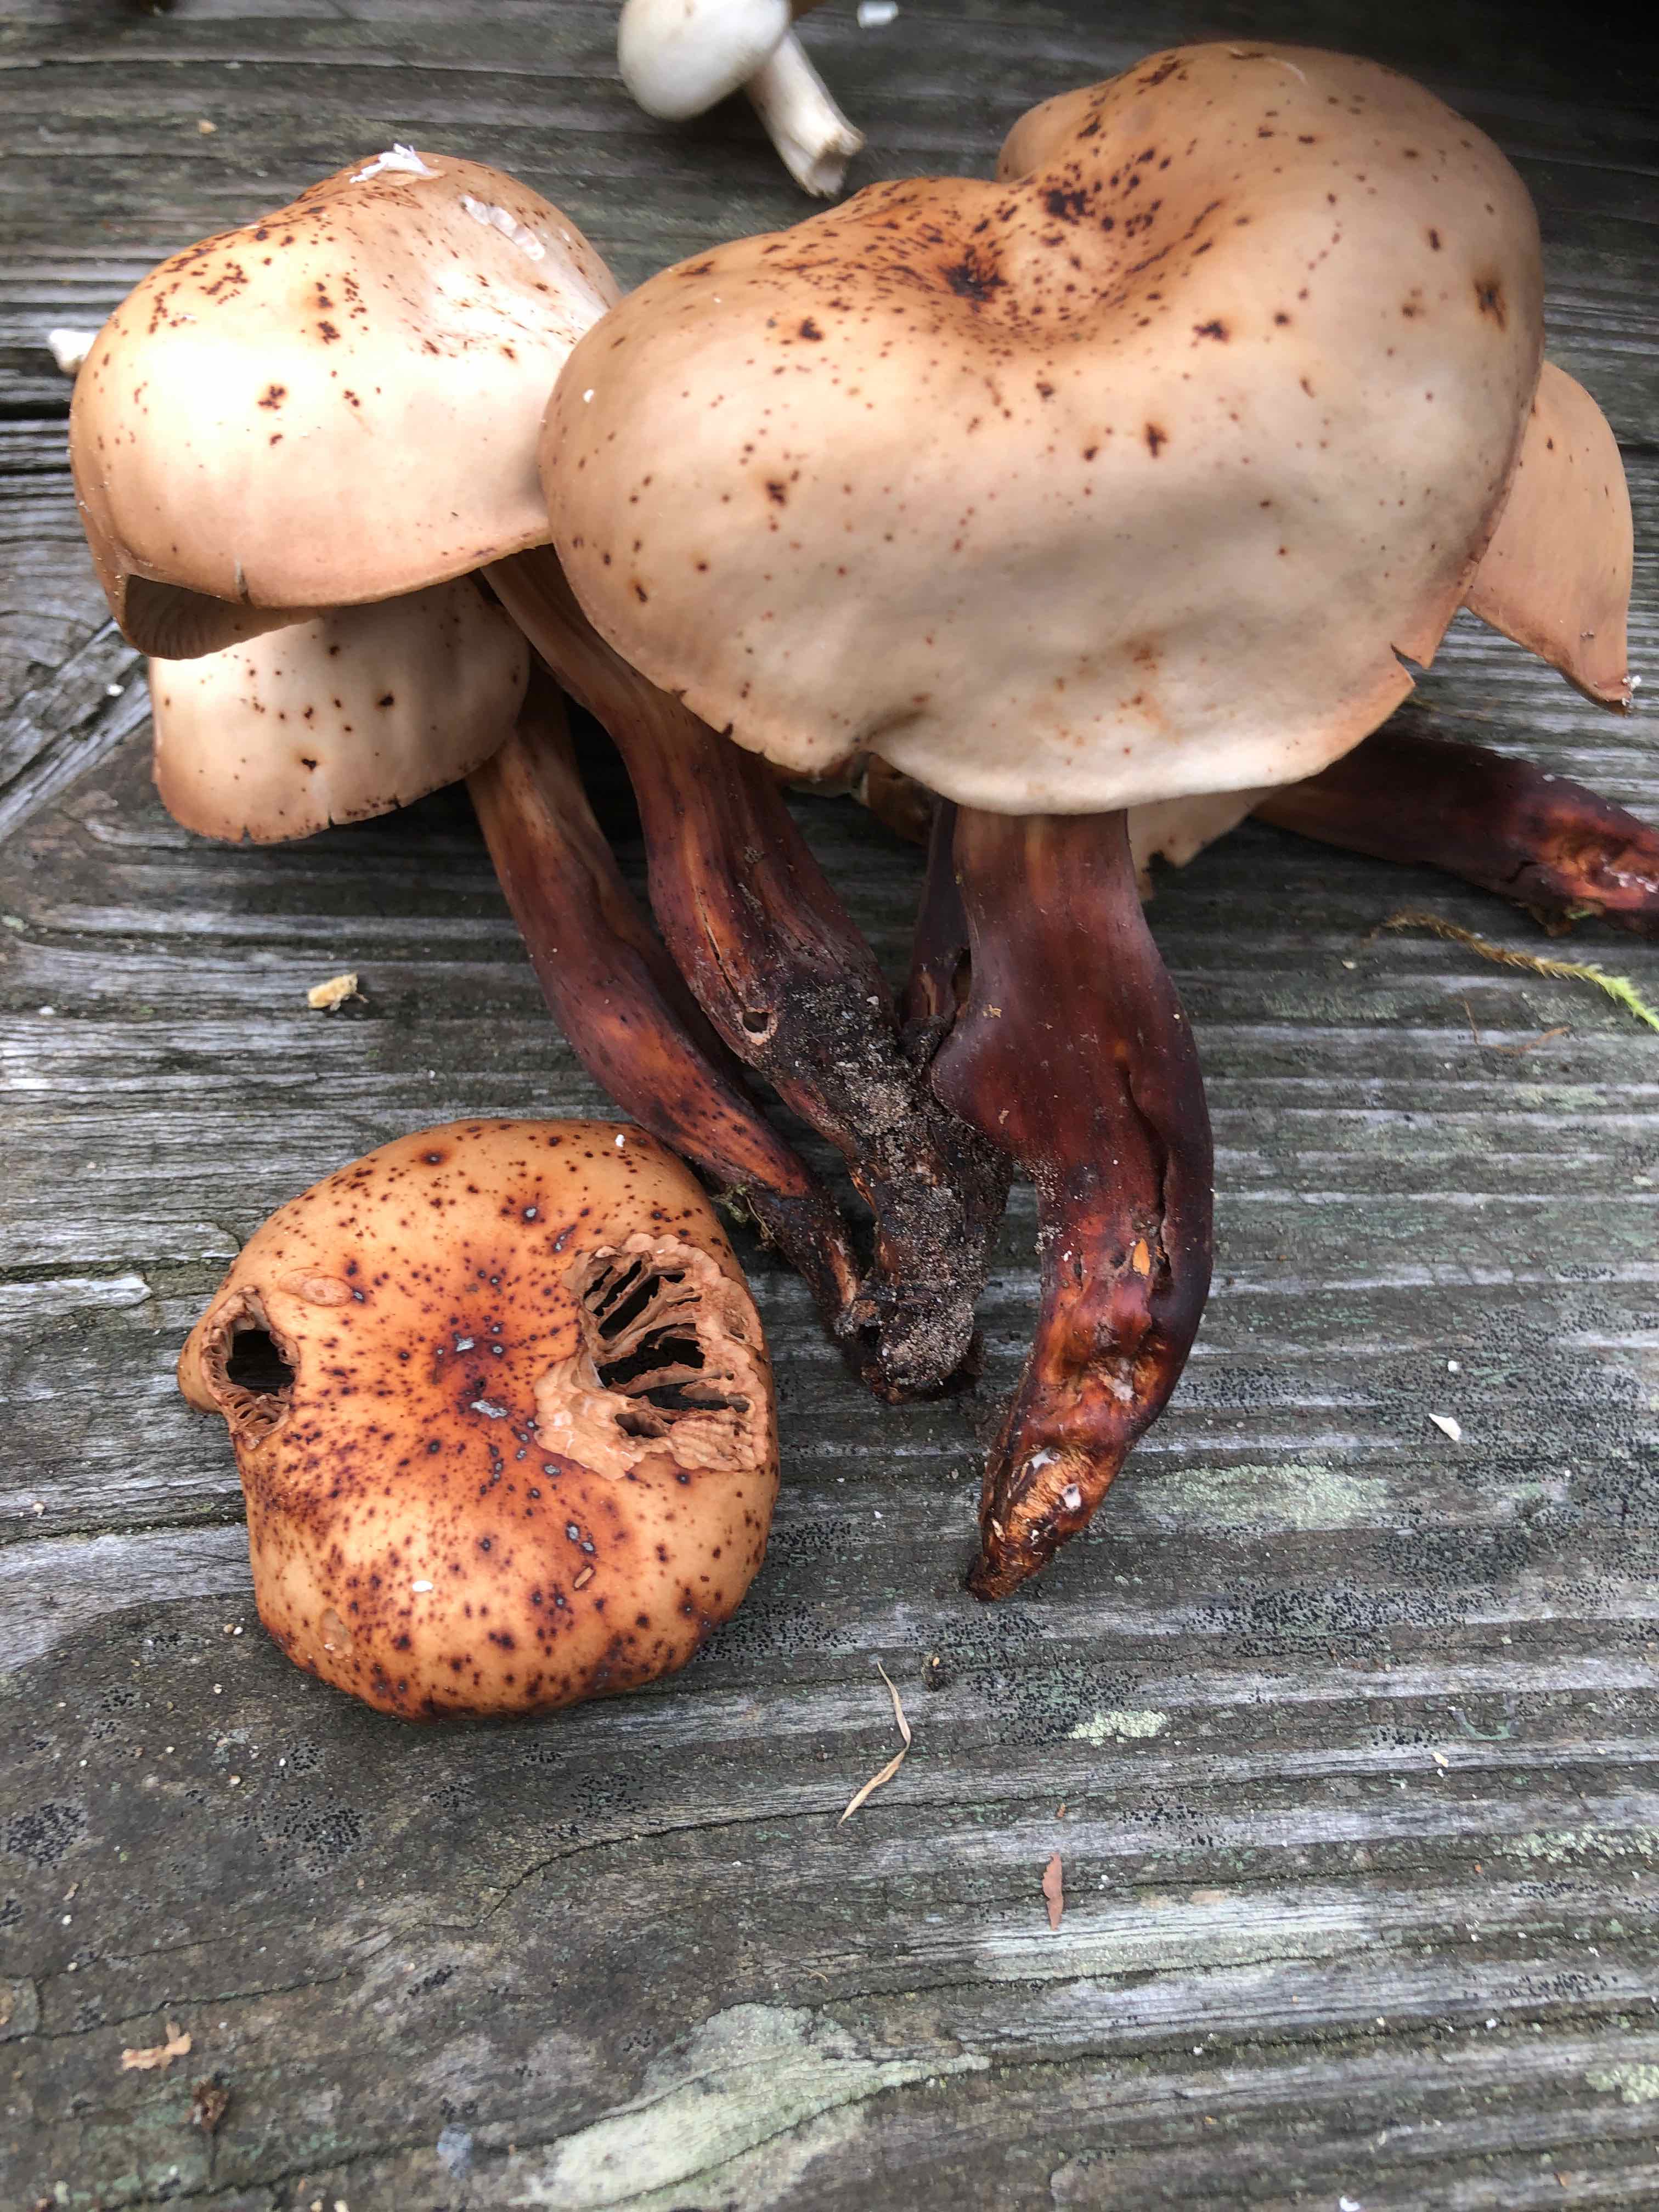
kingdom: Fungi
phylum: Basidiomycota
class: Agaricomycetes
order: Agaricales
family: Omphalotaceae
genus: Gymnopus
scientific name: Gymnopus fusipes
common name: tenstokket fladhat
